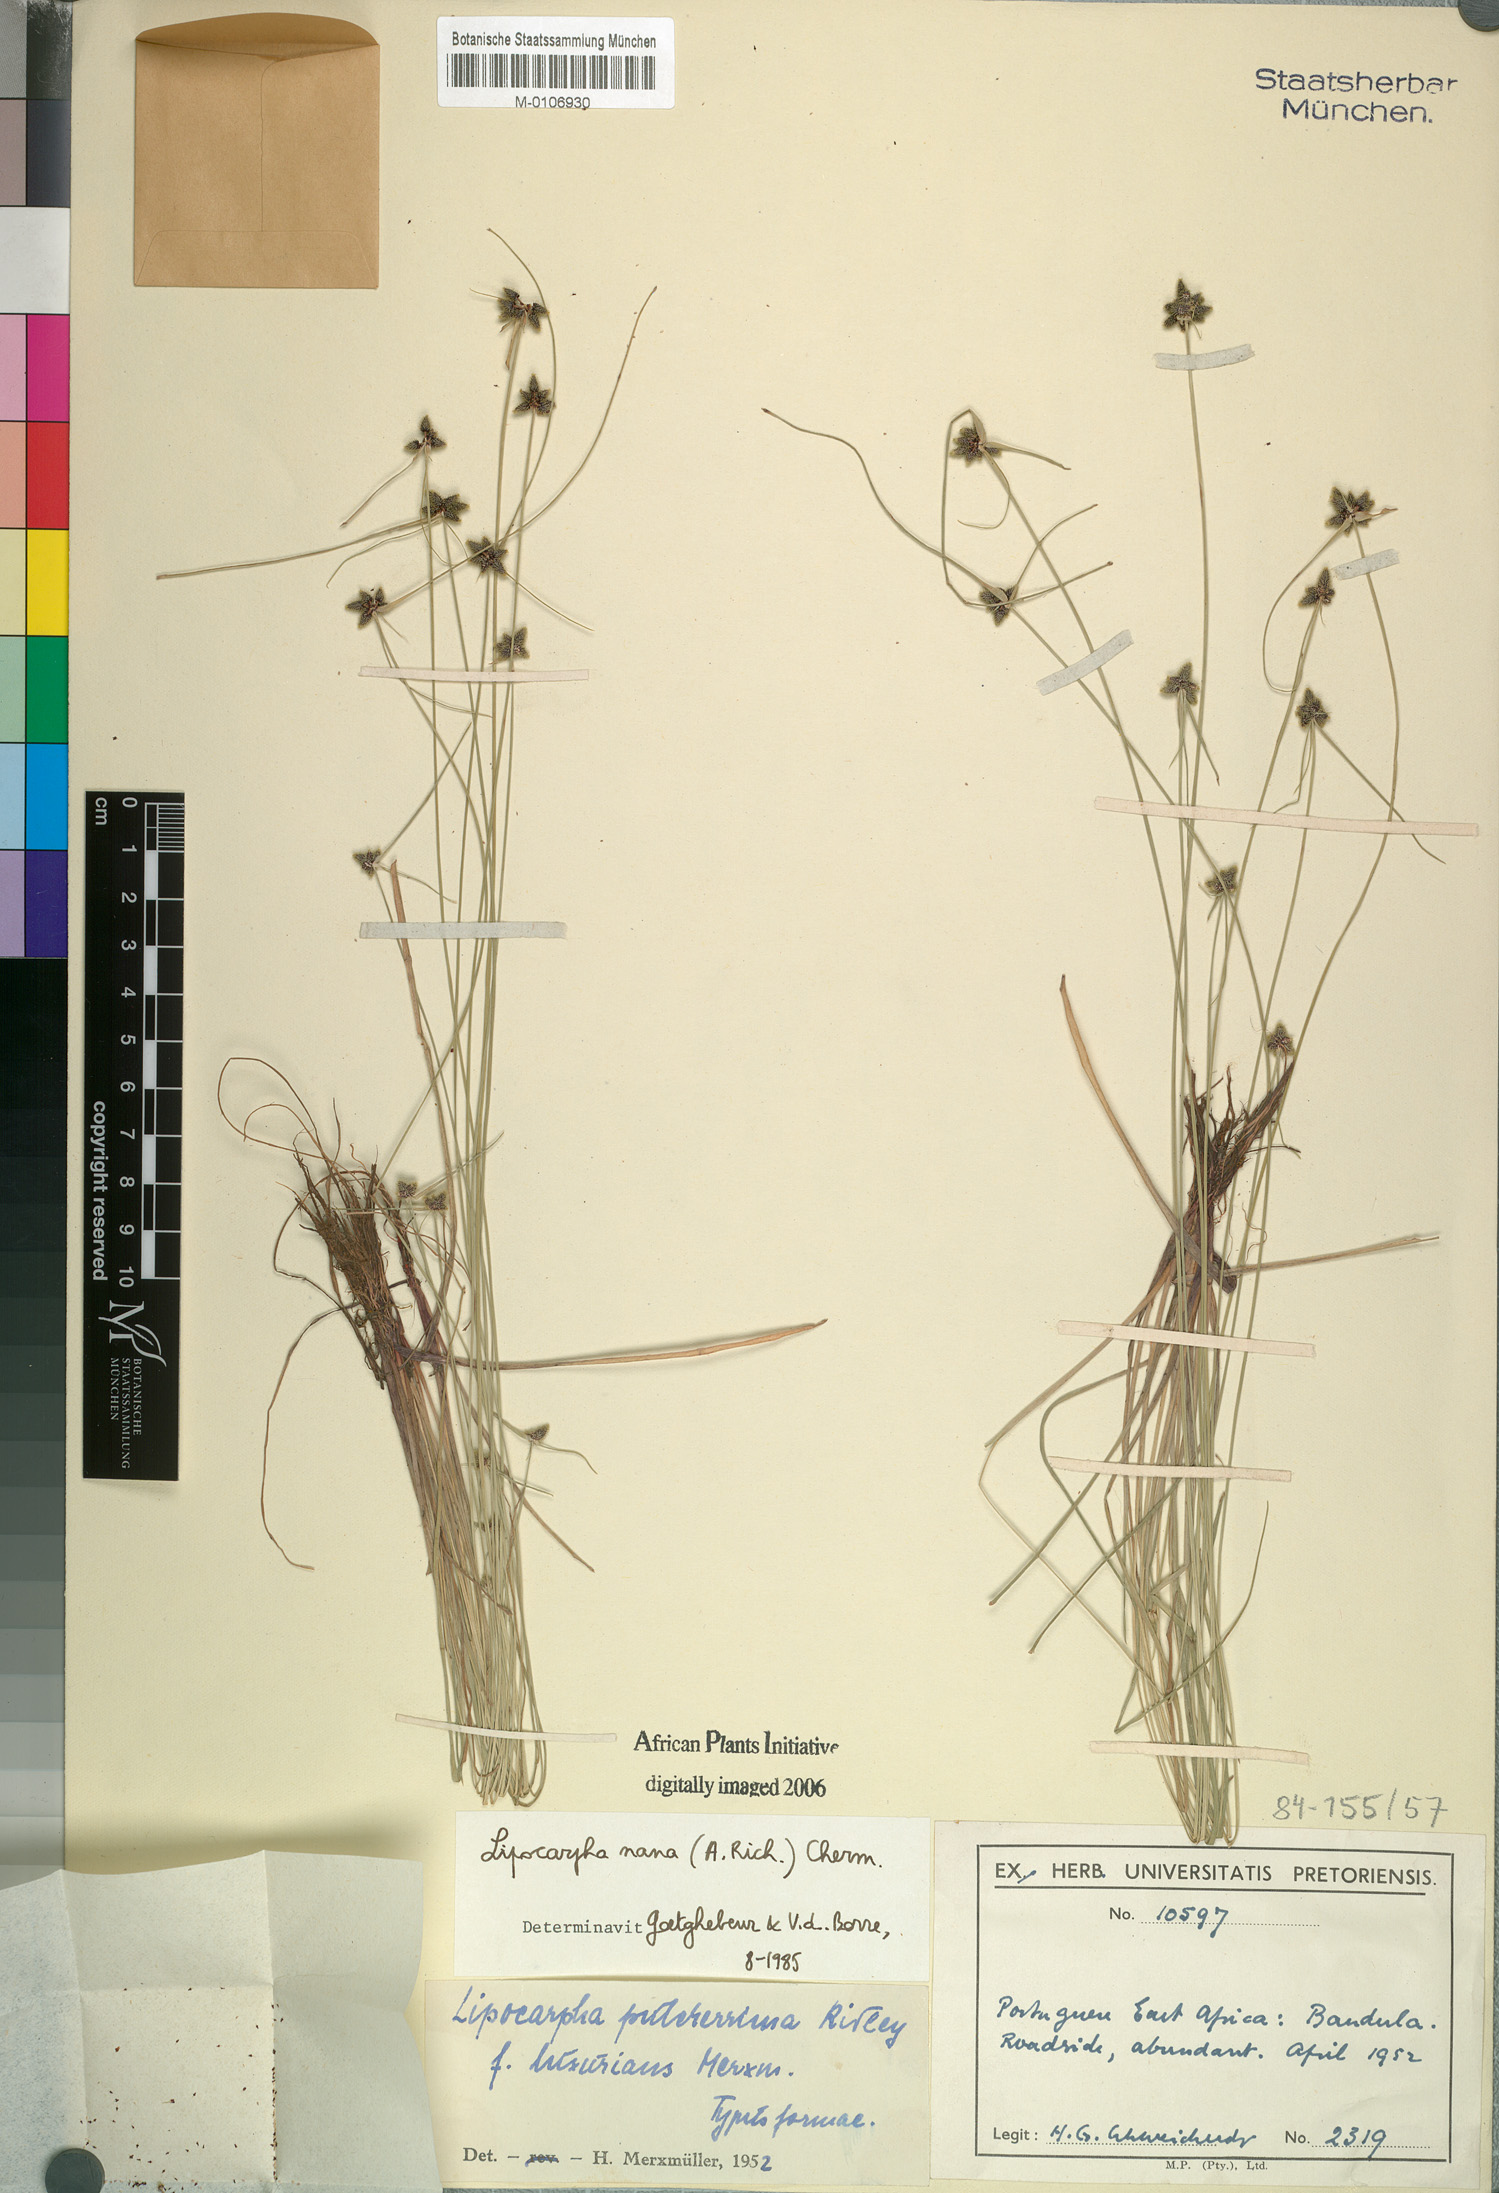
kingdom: Plantae
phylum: Tracheophyta
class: Liliopsida
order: Poales
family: Cyperaceae
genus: Cyperus
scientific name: Cyperus persquarrosus
